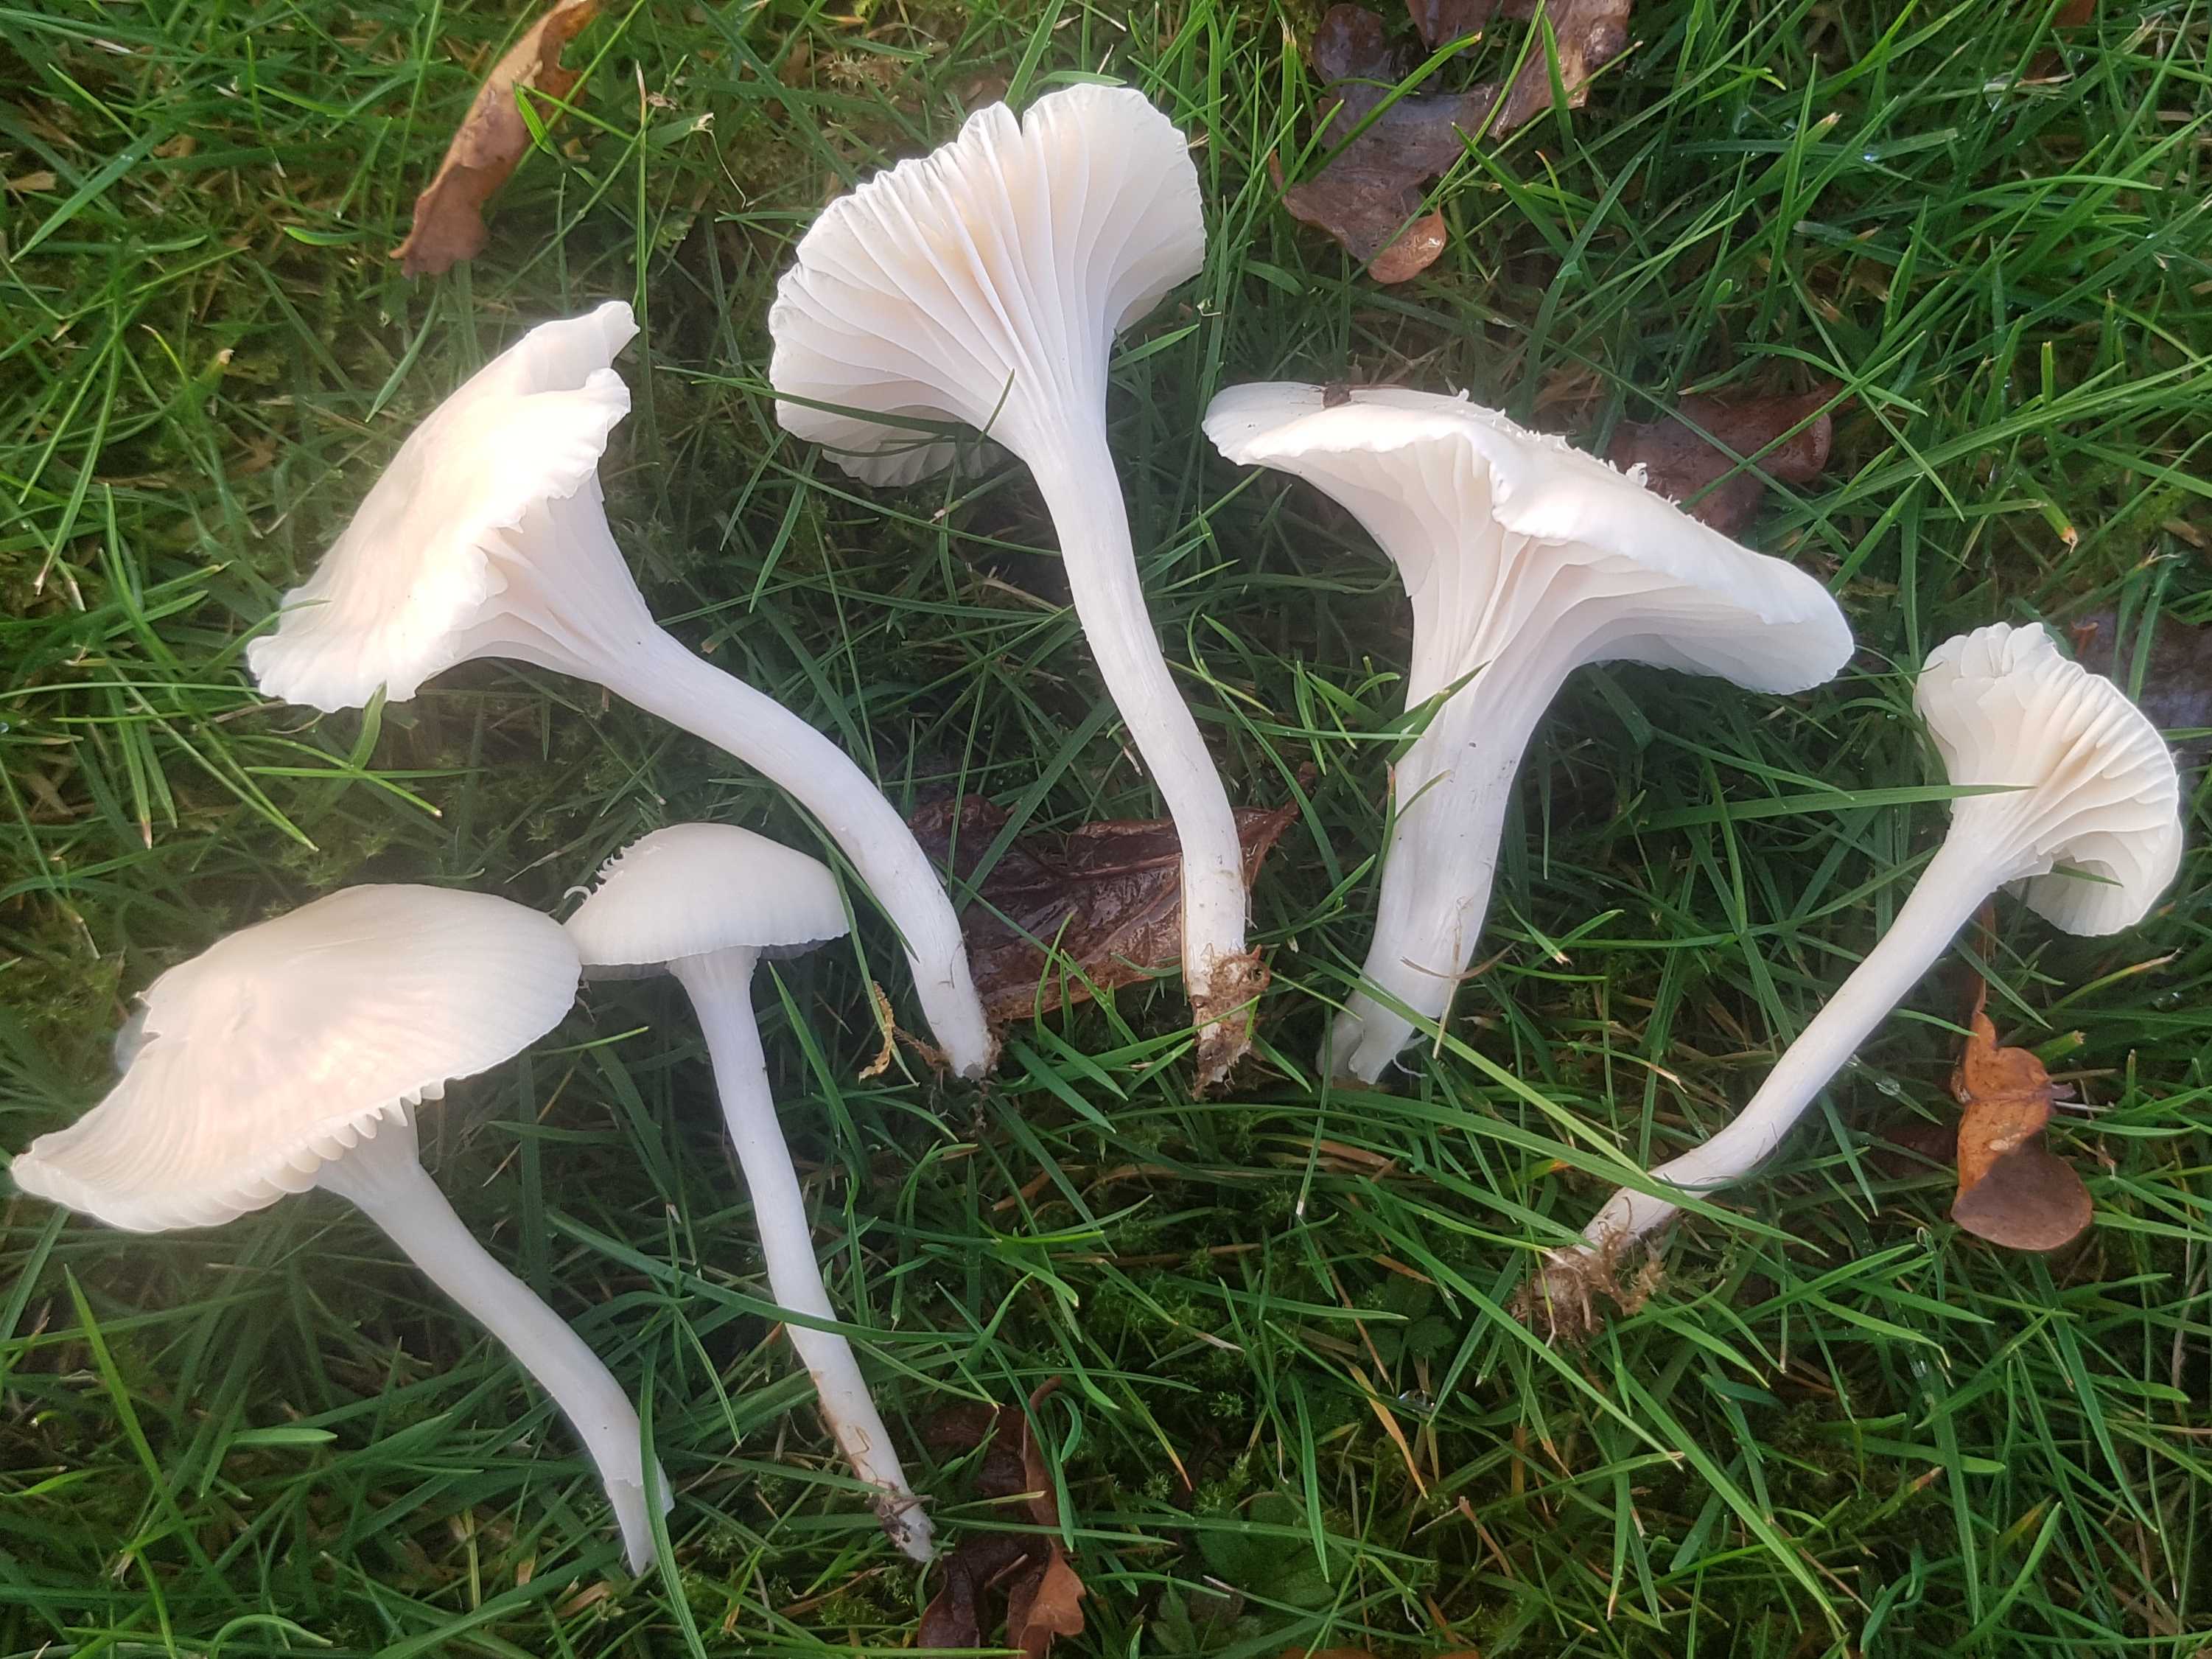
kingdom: Fungi
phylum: Basidiomycota
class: Agaricomycetes
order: Agaricales
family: Hygrophoraceae
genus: Cuphophyllus
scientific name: Cuphophyllus virgineus
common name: snehvid vokshat
